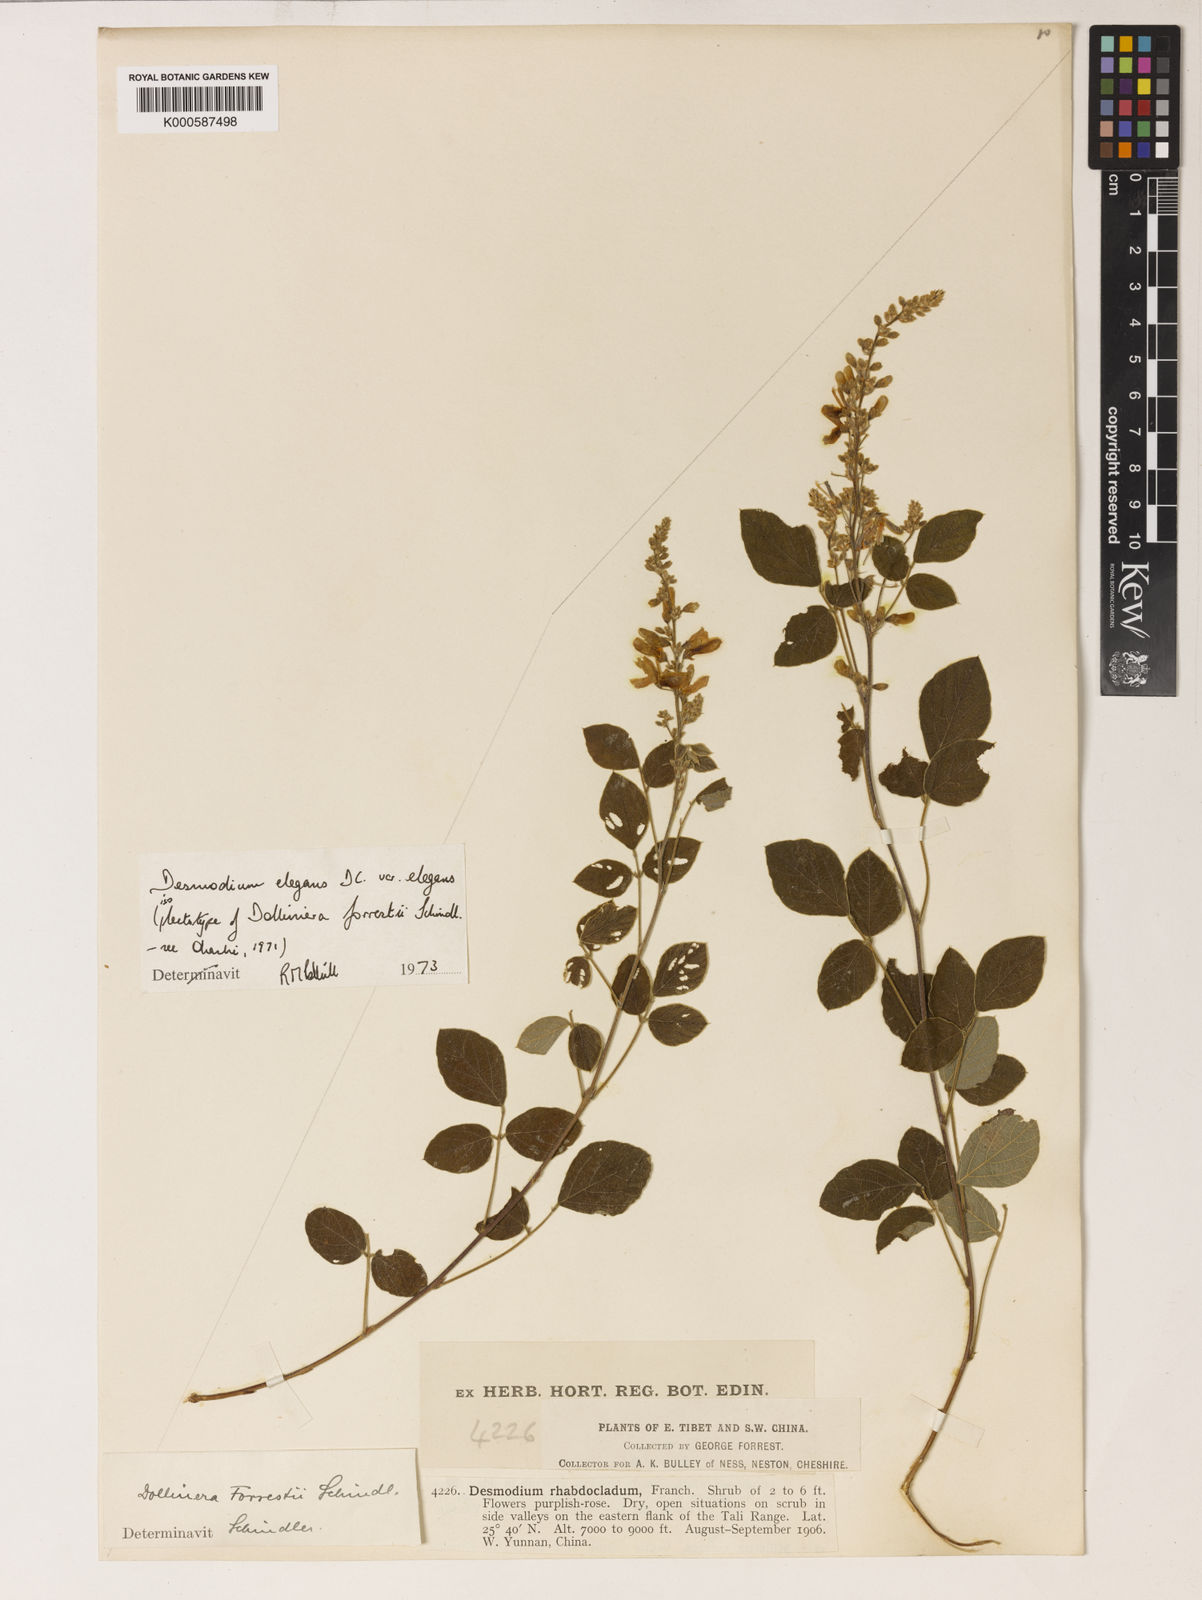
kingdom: Plantae
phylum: Tracheophyta
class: Magnoliopsida
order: Fabales
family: Fabaceae
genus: Sunhangia
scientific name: Sunhangia elegans
